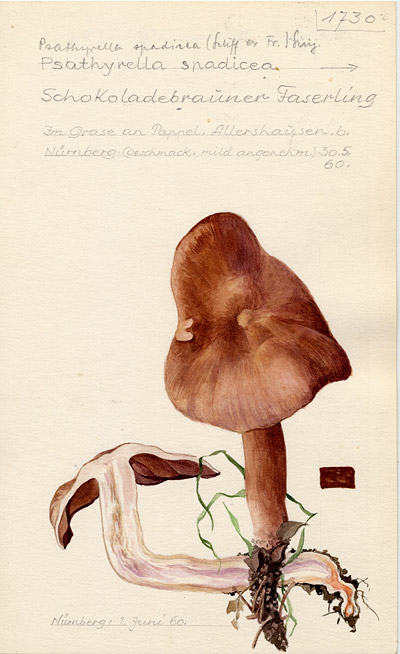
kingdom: Fungi
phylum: Basidiomycota
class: Agaricomycetes
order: Agaricales
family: Psathyrellaceae
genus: Homophron
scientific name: Homophron spadiceum
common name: Chestnut brittlestem
